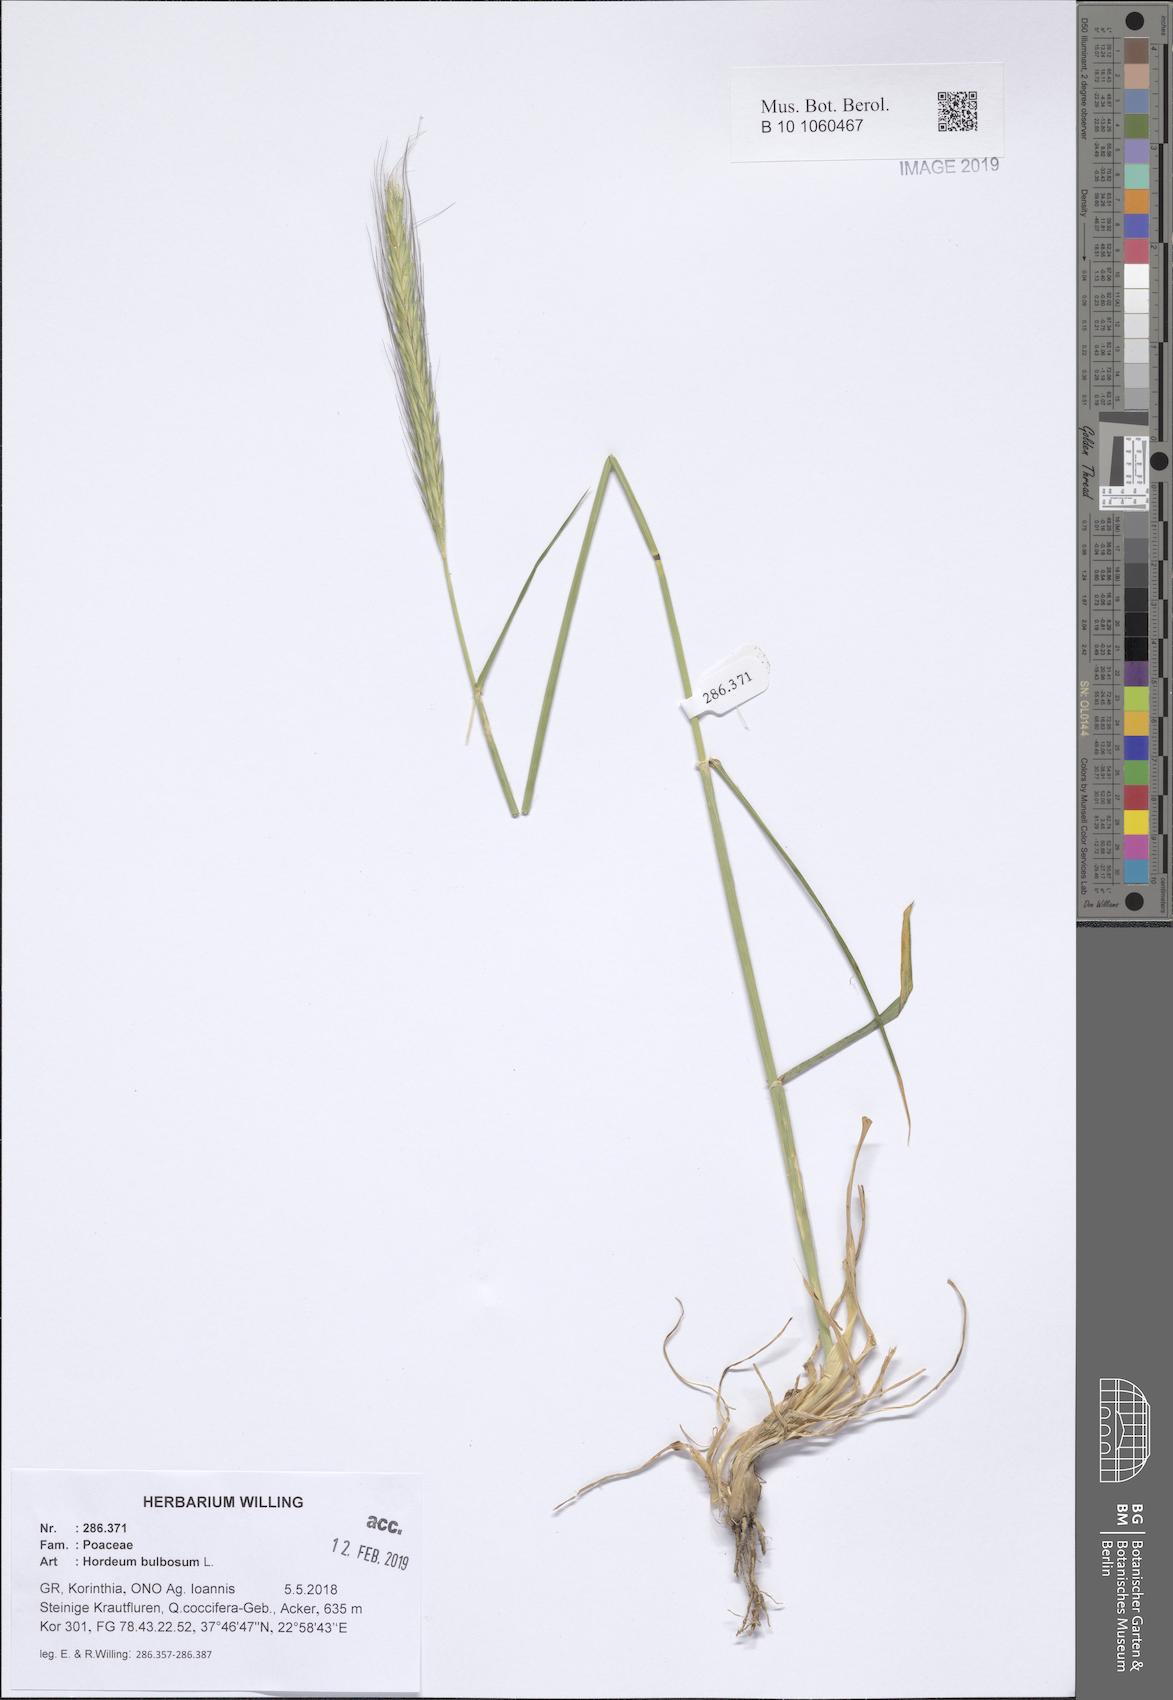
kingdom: Plantae
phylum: Tracheophyta
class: Liliopsida
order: Poales
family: Poaceae
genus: Hordeum
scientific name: Hordeum bulbosum
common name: Bulbous barley
